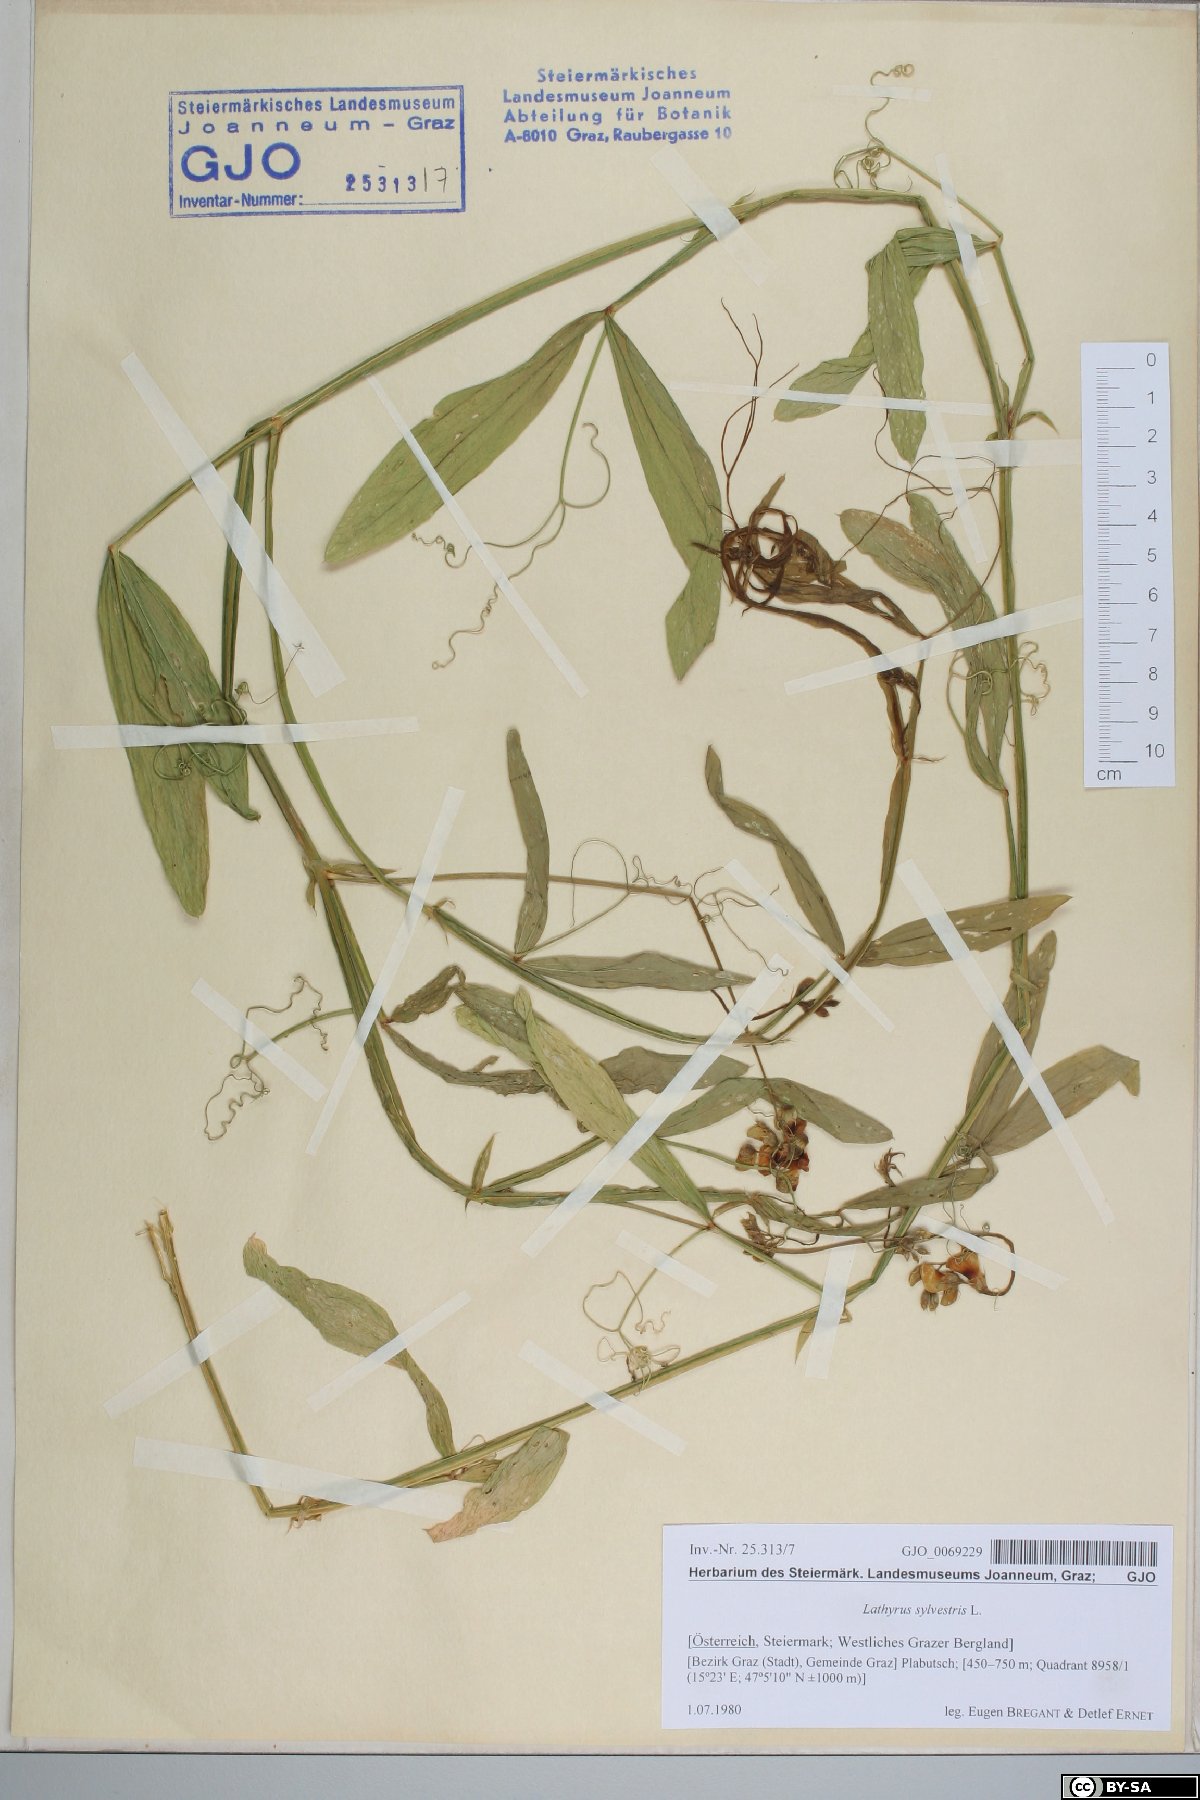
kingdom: Plantae
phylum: Tracheophyta
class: Magnoliopsida
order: Fabales
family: Fabaceae
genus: Lathyrus
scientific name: Lathyrus sylvestris
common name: Flat pea
